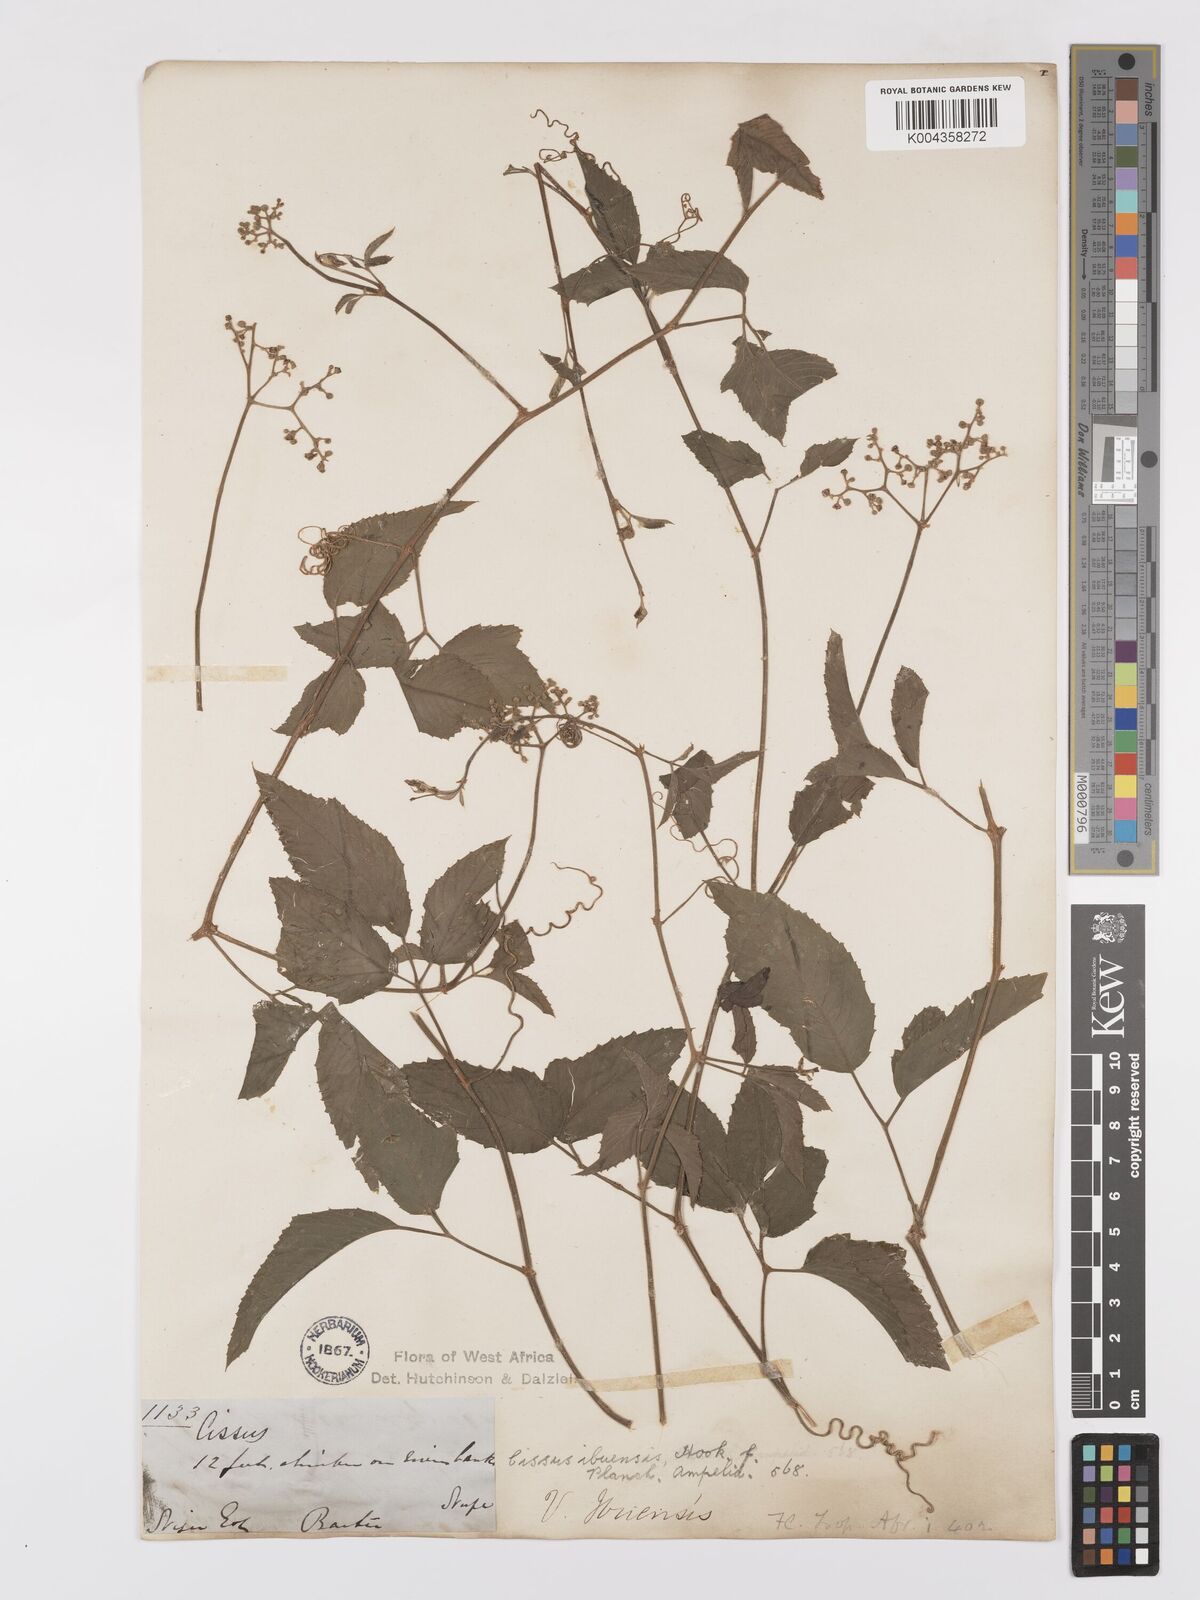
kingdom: Plantae
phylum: Tracheophyta
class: Magnoliopsida
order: Vitales
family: Vitaceae
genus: Afrocayratia
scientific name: Afrocayratia ibuensis
